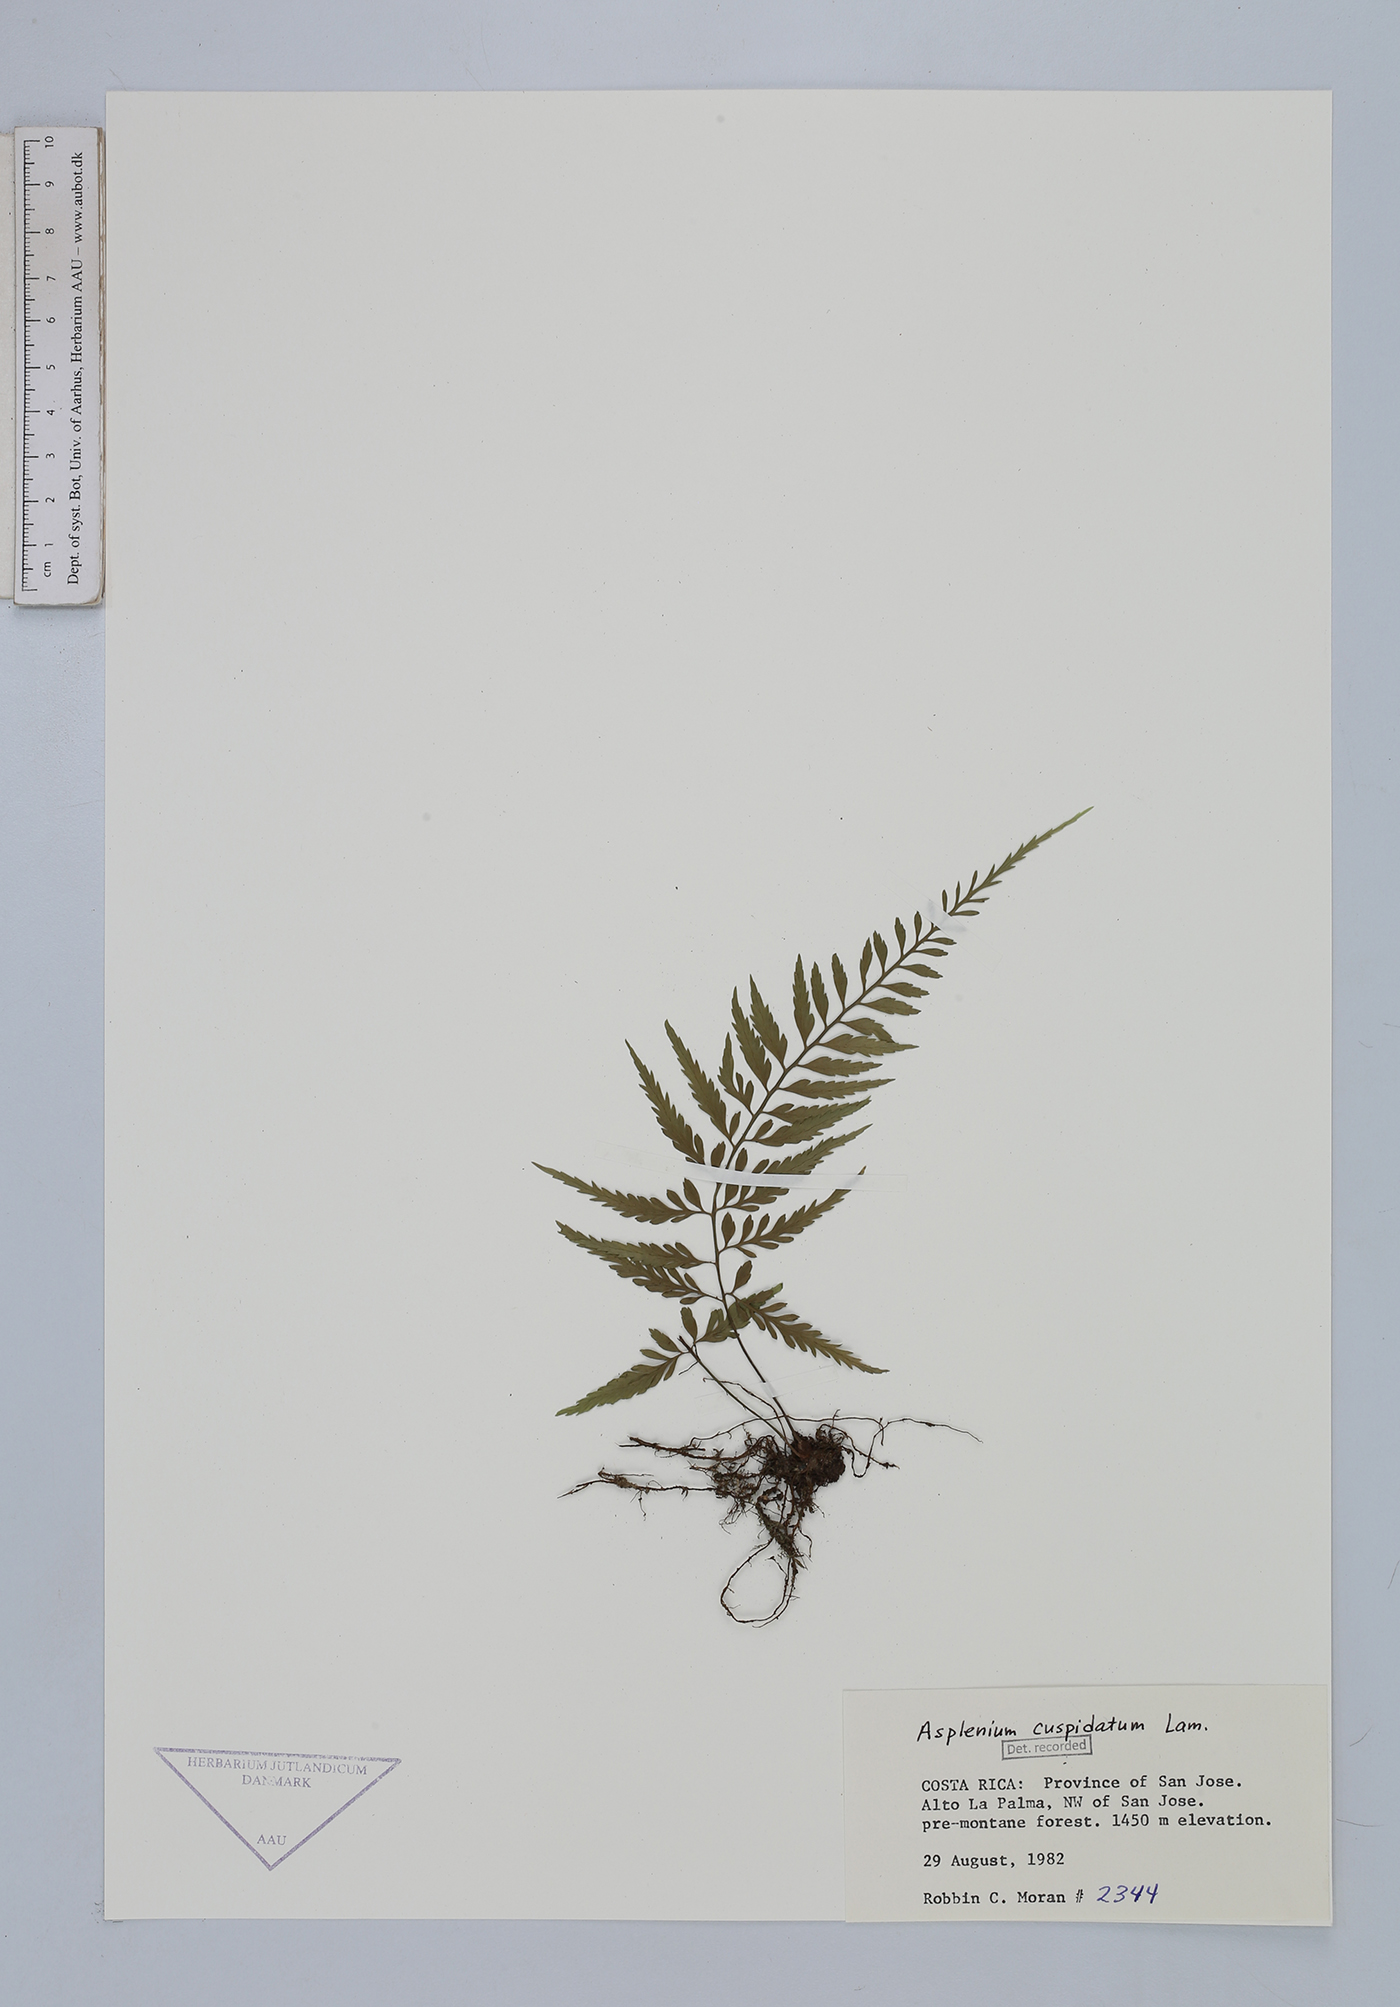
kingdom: Plantae
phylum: Tracheophyta
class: Polypodiopsida
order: Polypodiales
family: Aspleniaceae
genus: Asplenium
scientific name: Asplenium cuspidatum
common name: Eared spleenwort
